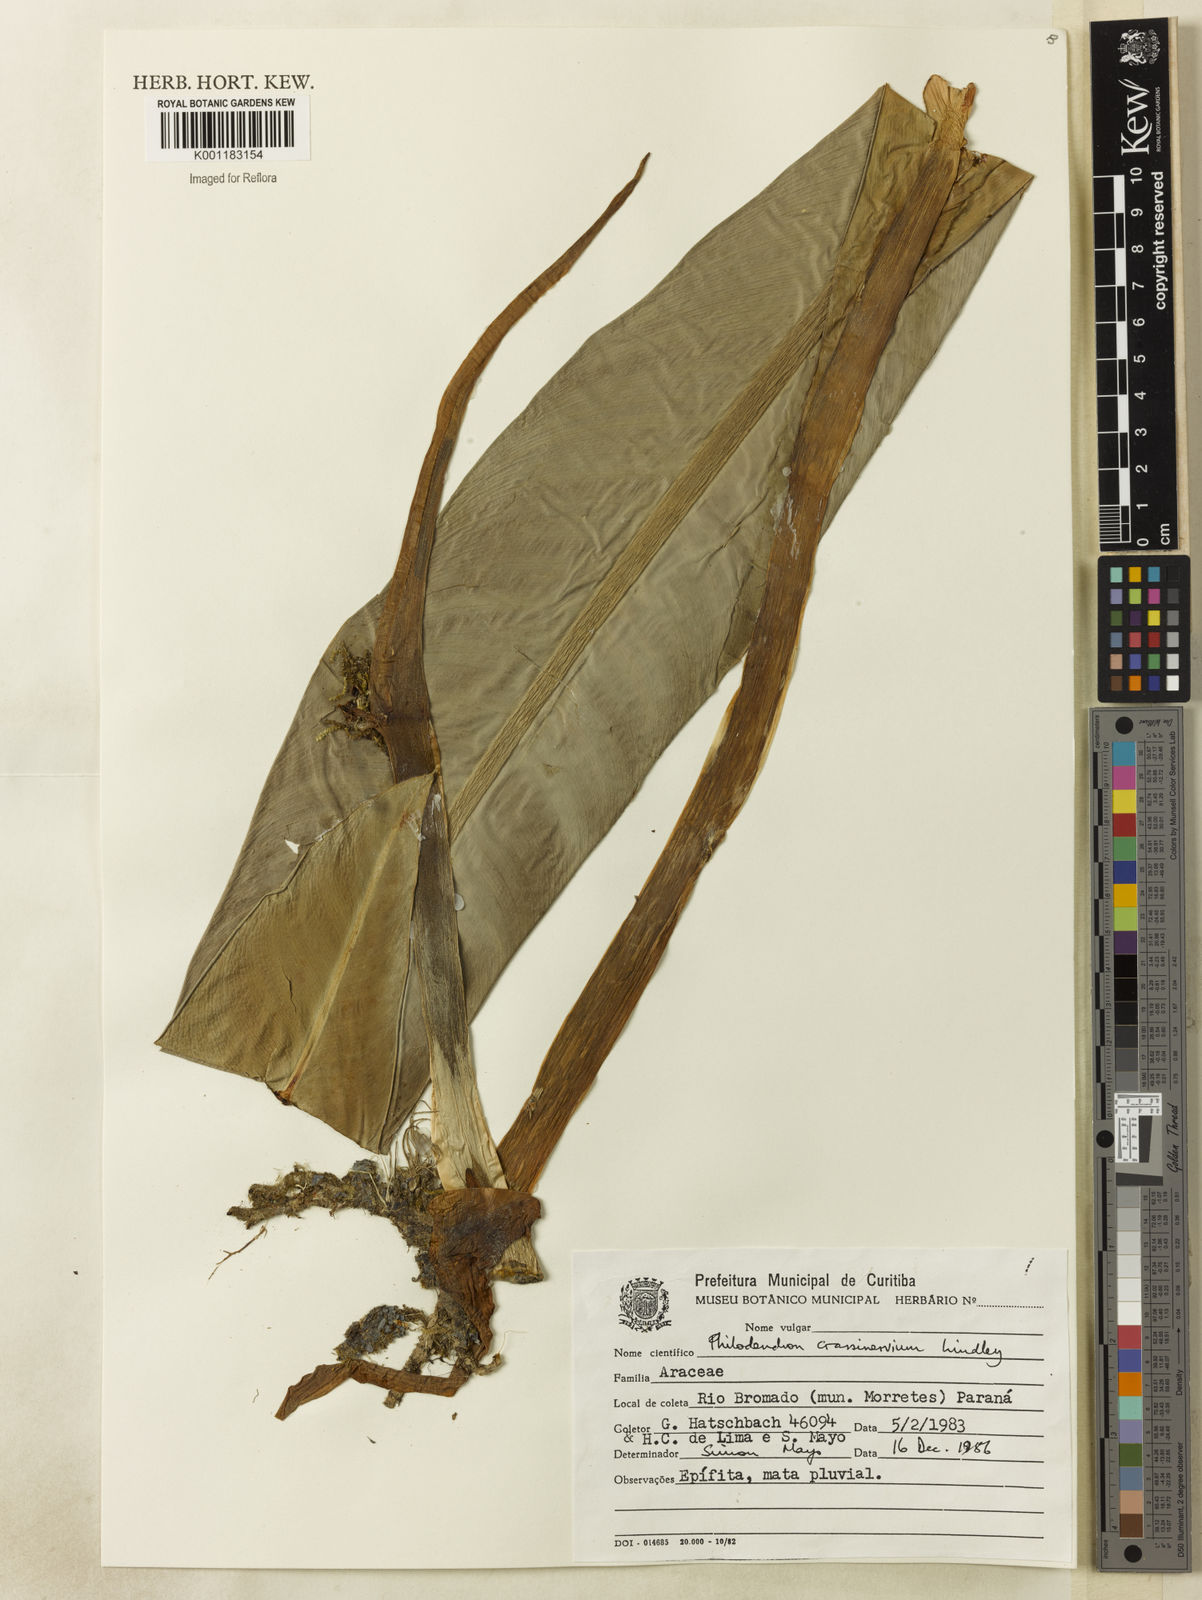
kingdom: Plantae
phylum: Tracheophyta
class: Liliopsida
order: Alismatales
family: Araceae
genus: Philodendron
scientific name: Philodendron crassinervium
